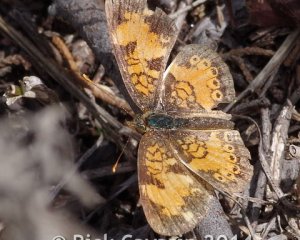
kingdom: Animalia
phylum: Arthropoda
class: Insecta
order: Lepidoptera
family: Nymphalidae
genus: Phyciodes
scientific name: Phyciodes tharos
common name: Northern Crescent
